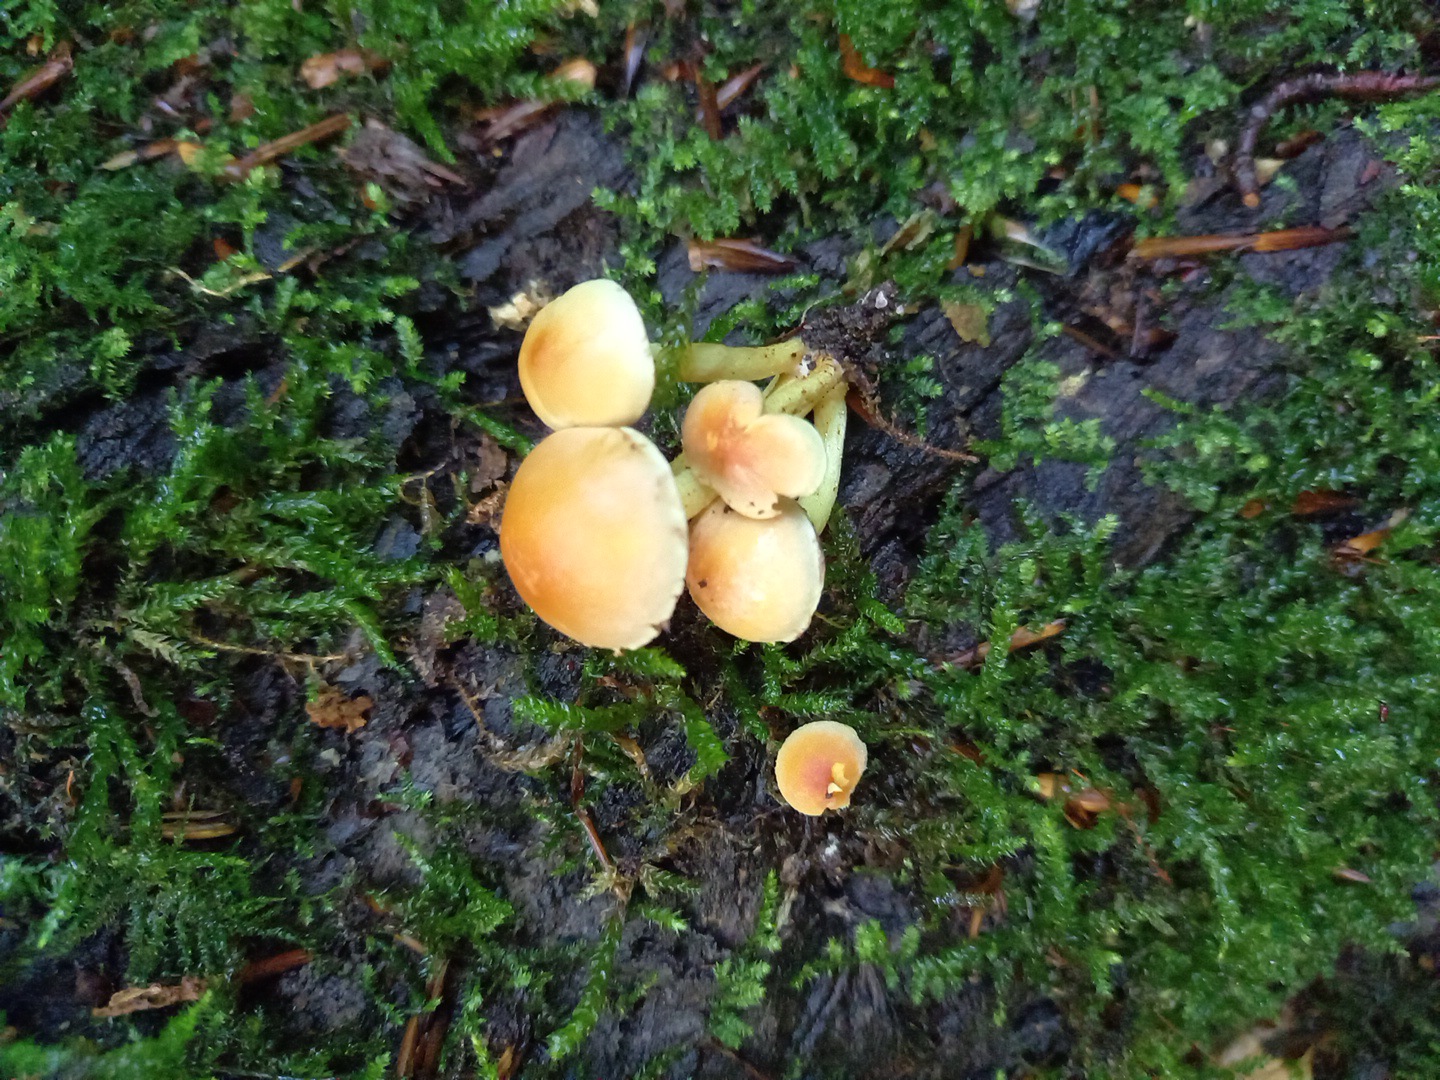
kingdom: Fungi
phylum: Basidiomycota
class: Agaricomycetes
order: Agaricales
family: Strophariaceae
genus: Hypholoma
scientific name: Hypholoma fasciculare
